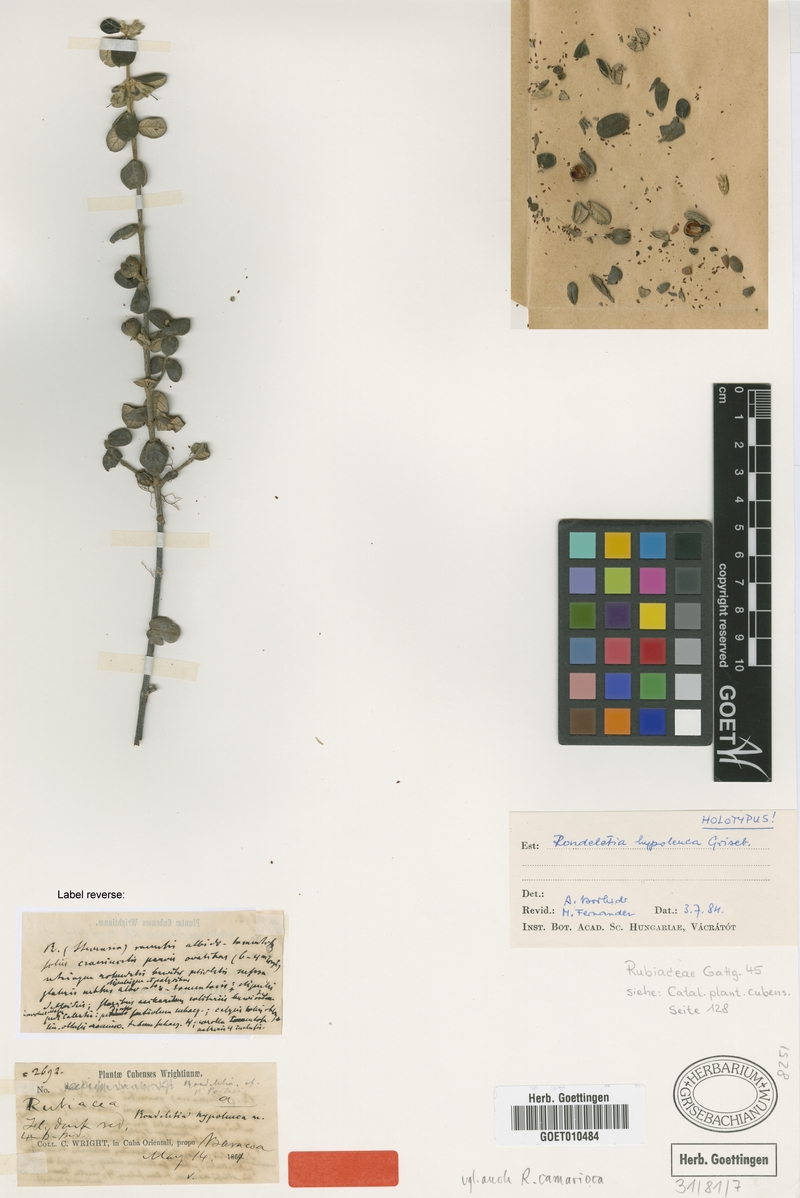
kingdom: Plantae
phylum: Tracheophyta
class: Magnoliopsida
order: Gentianales
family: Rubiaceae
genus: Rondeletia
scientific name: Rondeletia hypoleuca
